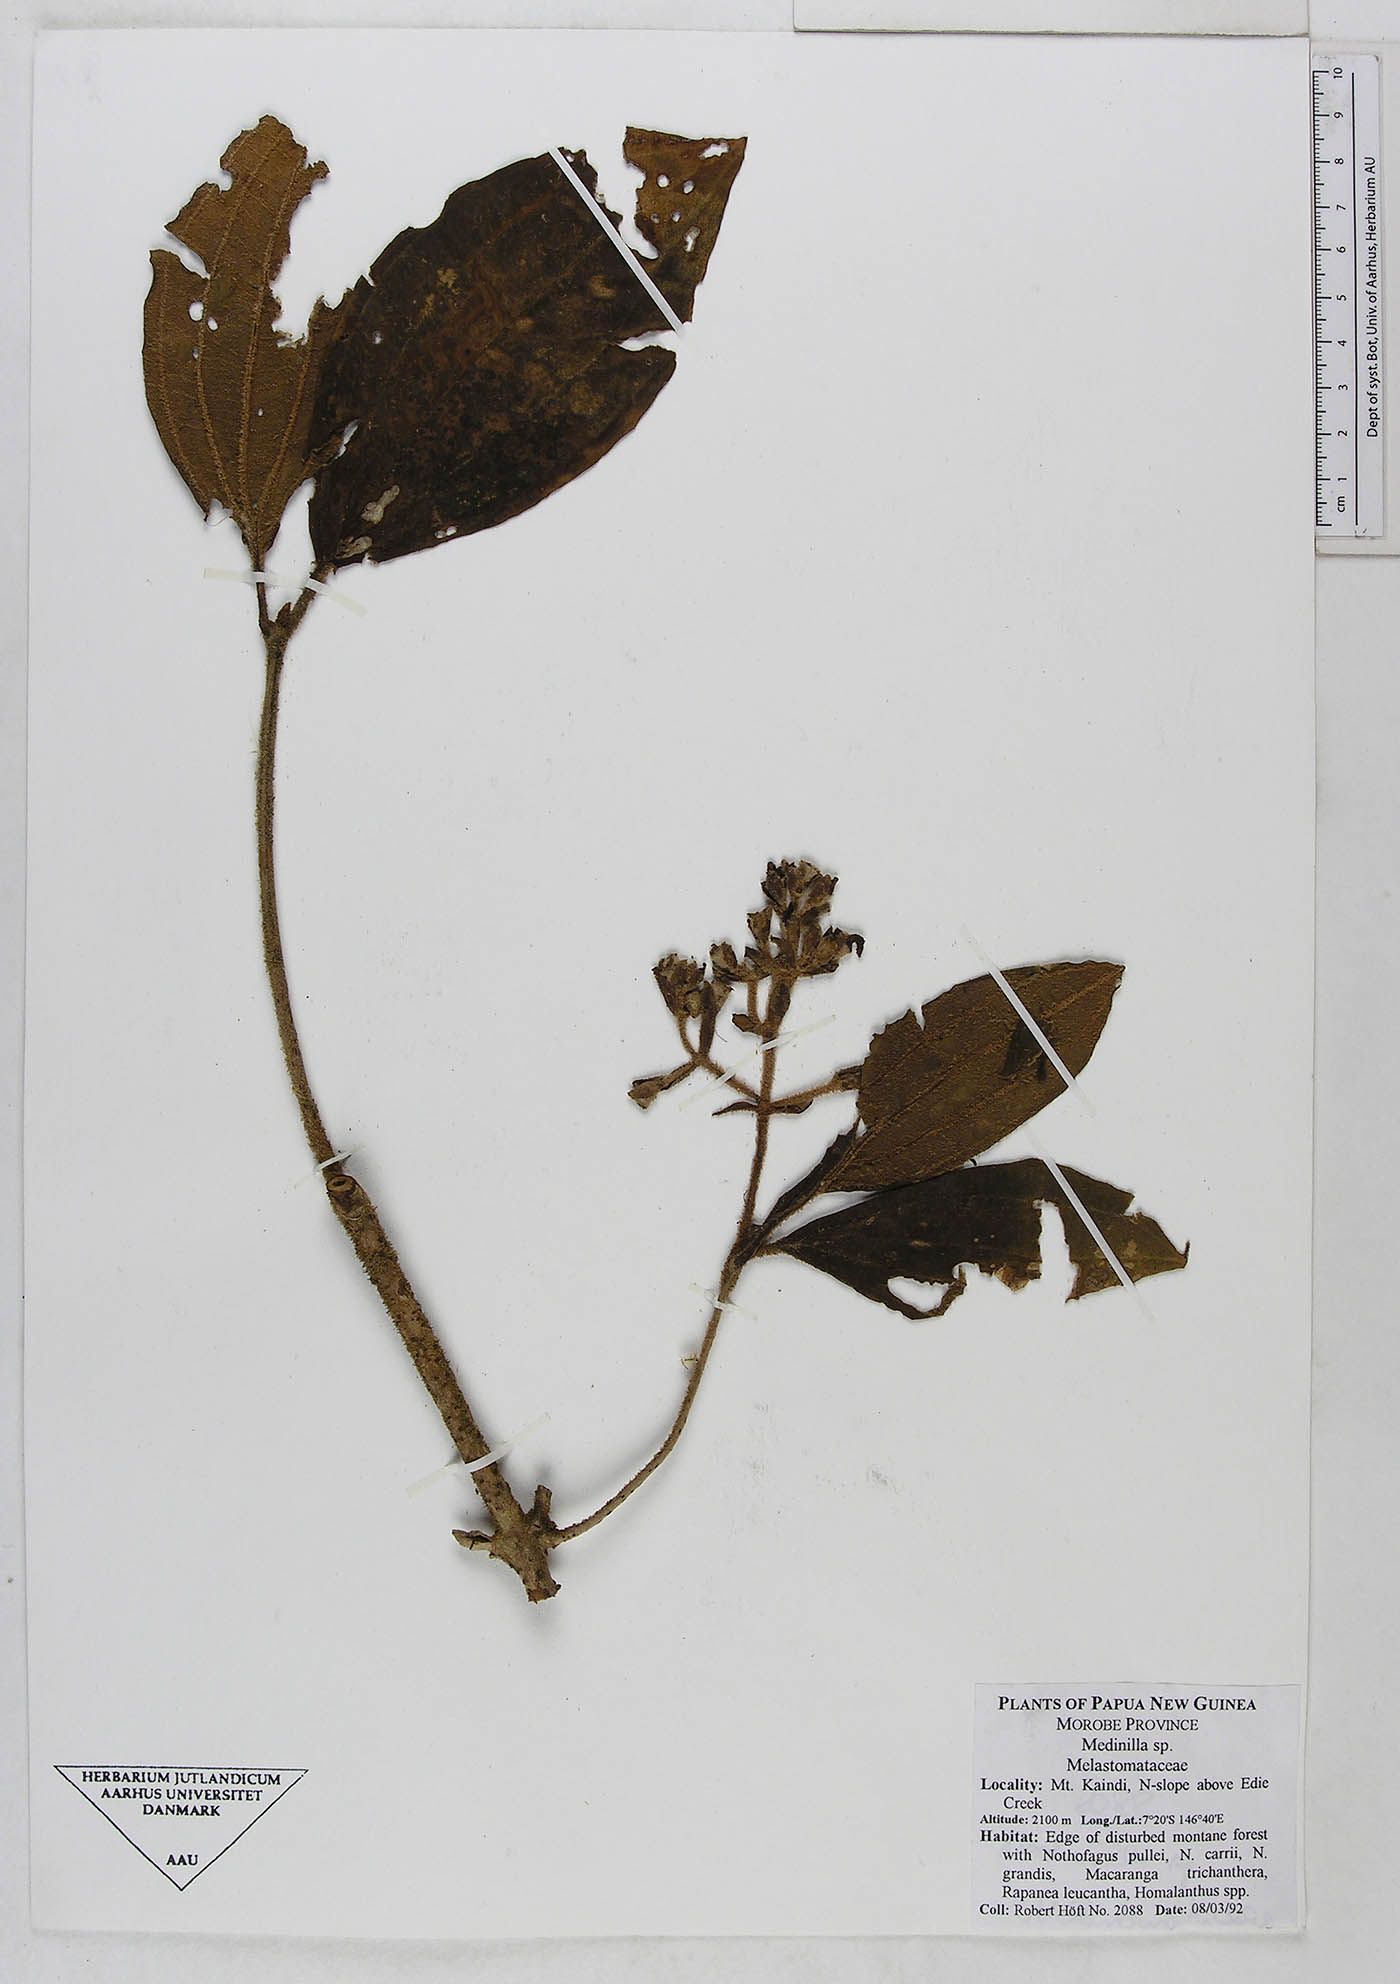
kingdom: Plantae
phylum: Tracheophyta
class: Magnoliopsida
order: Myrtales
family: Melastomataceae
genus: Medinilla
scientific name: Medinilla
